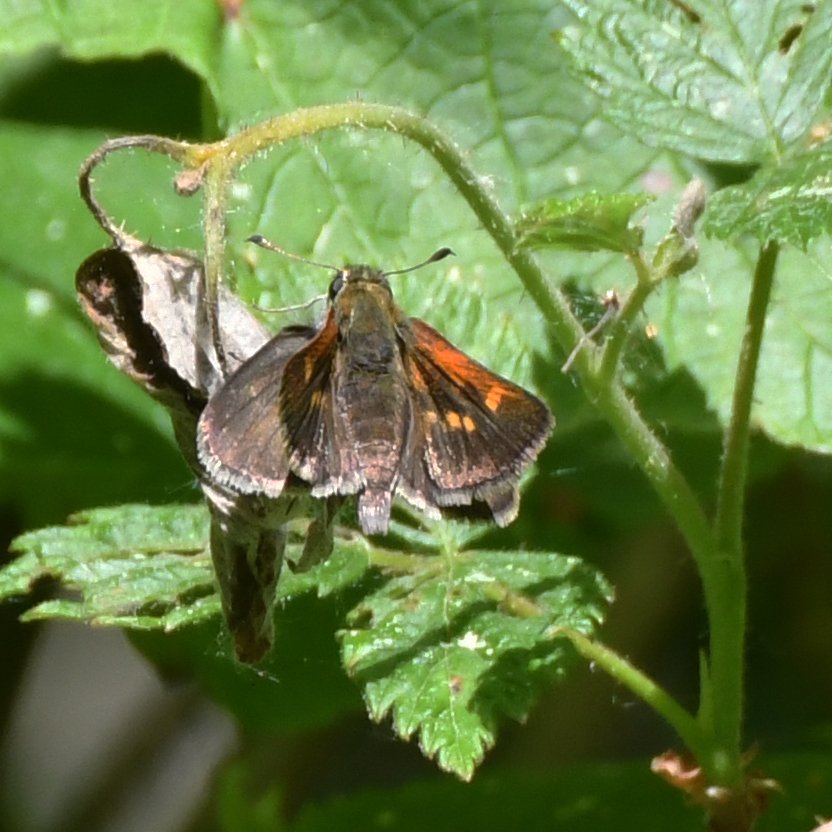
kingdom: Animalia
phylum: Arthropoda
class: Insecta
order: Lepidoptera
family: Hesperiidae
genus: Polites
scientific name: Polites themistocles
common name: Tawny-edged Skipper
